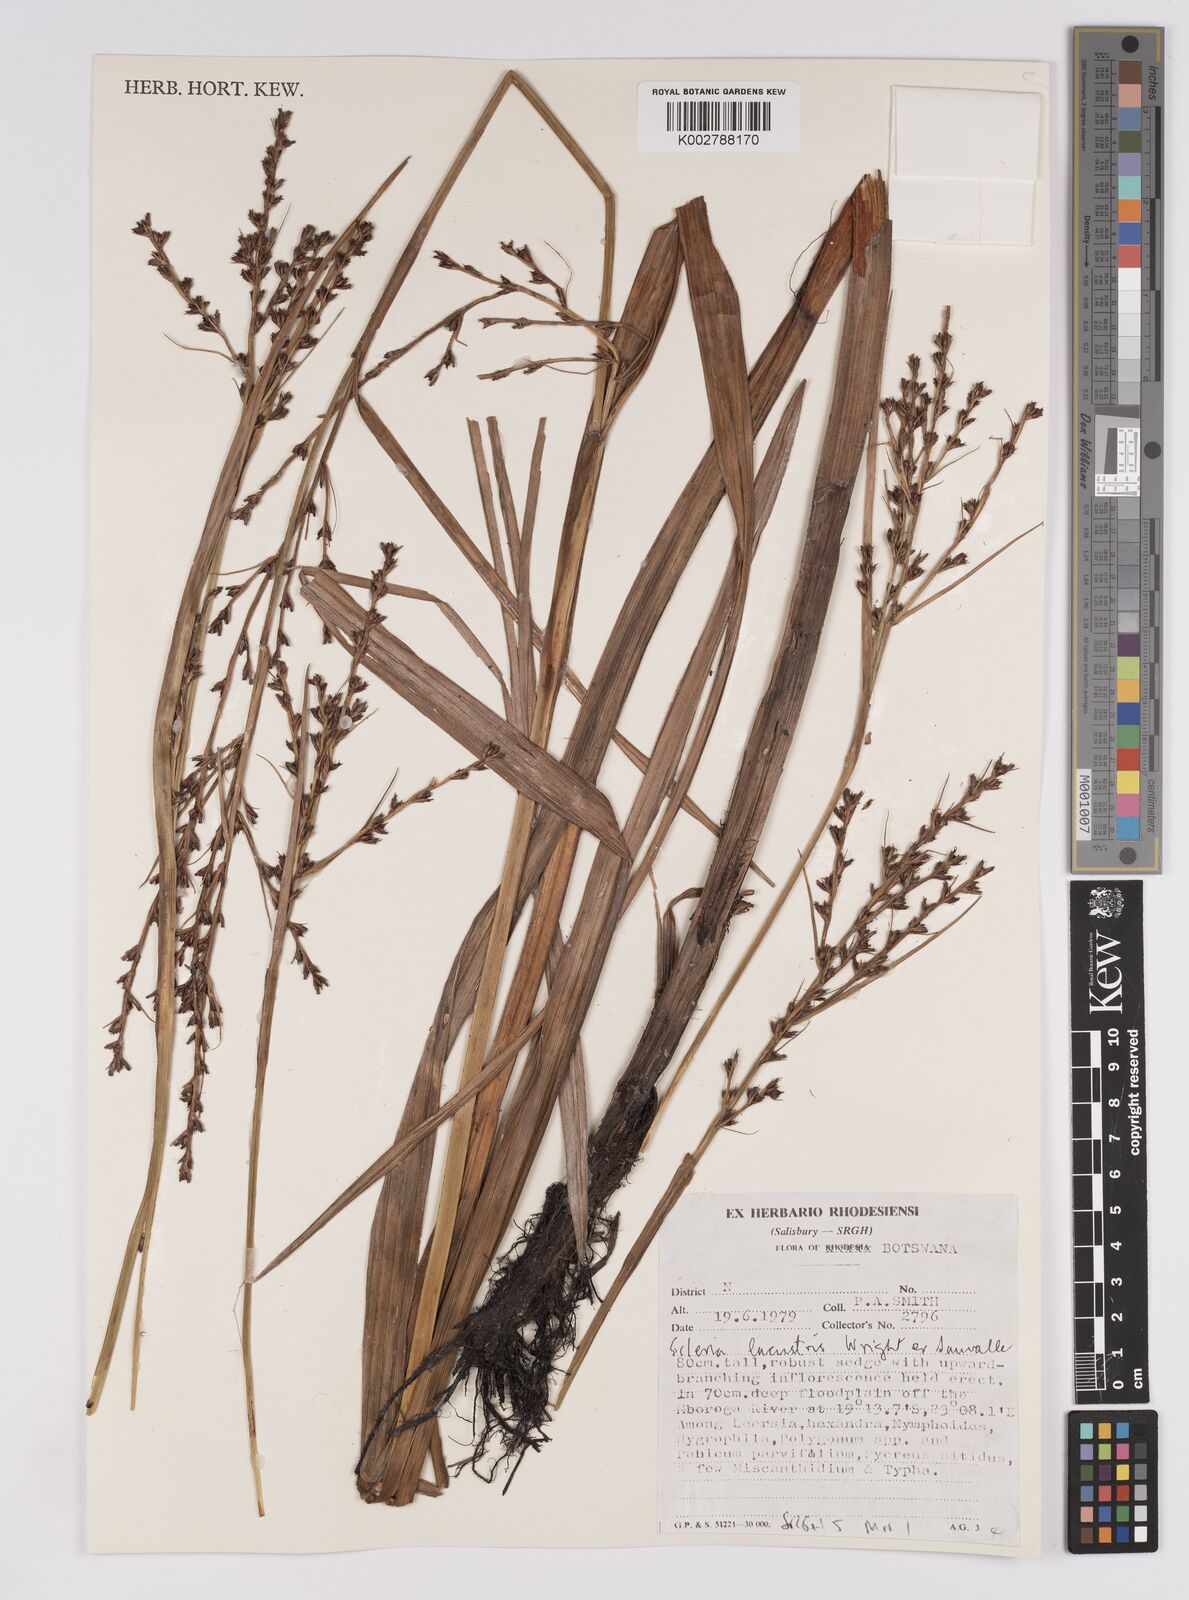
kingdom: Plantae
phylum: Tracheophyta
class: Liliopsida
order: Poales
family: Cyperaceae
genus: Scleria
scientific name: Scleria lacustris
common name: Lakeshore nutrush
